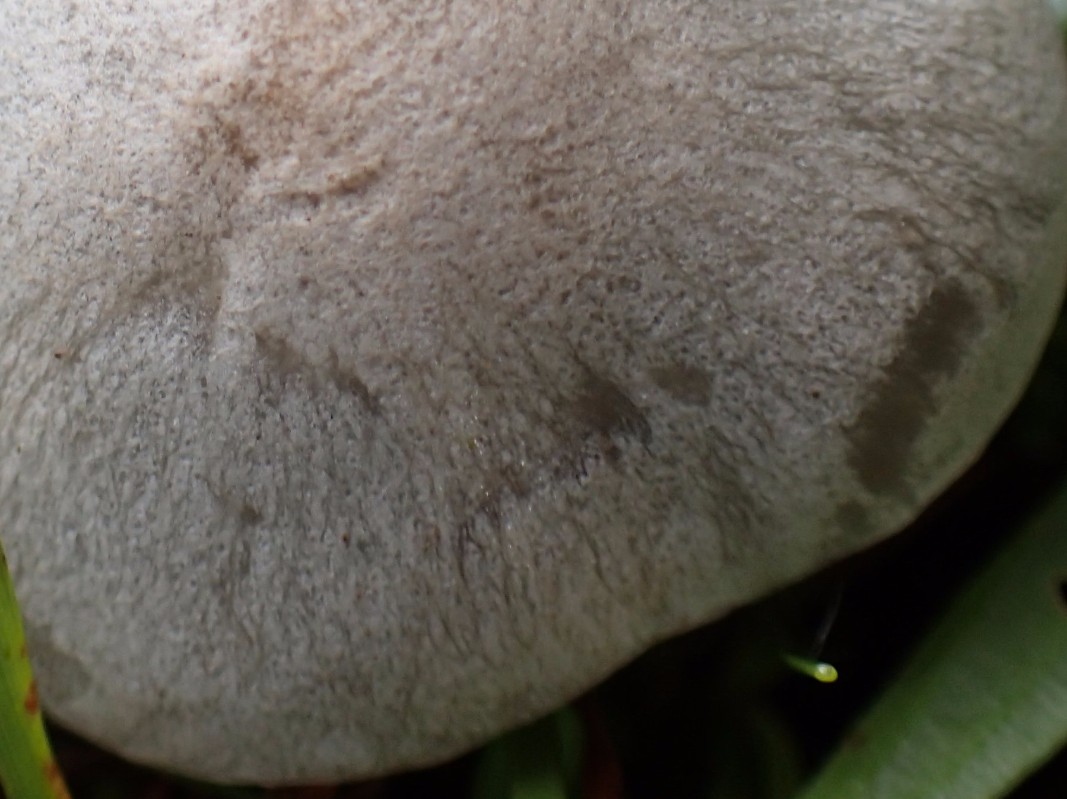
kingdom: Fungi
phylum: Basidiomycota
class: Agaricomycetes
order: Agaricales
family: Tricholomataceae
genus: Clitocybe
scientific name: Clitocybe odora
